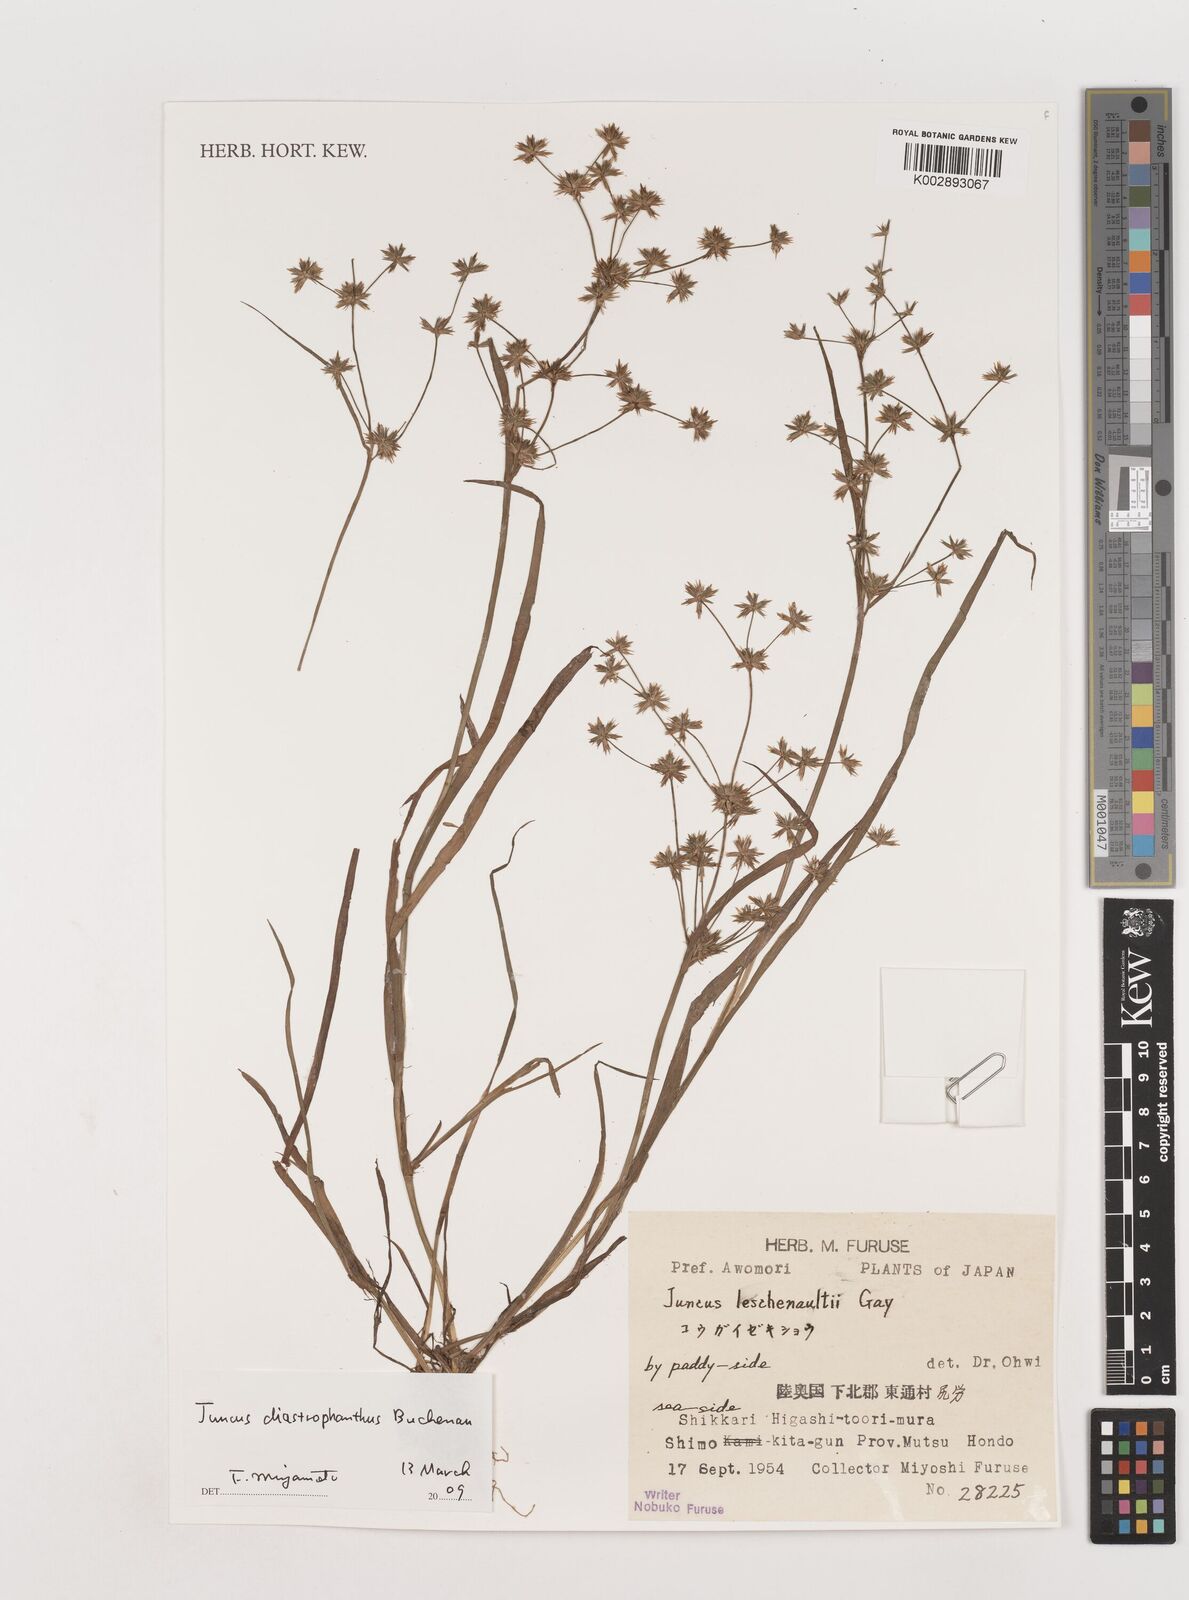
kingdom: Plantae
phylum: Tracheophyta
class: Liliopsida
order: Poales
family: Juncaceae
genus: Juncus
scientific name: Juncus prismatocarpus
